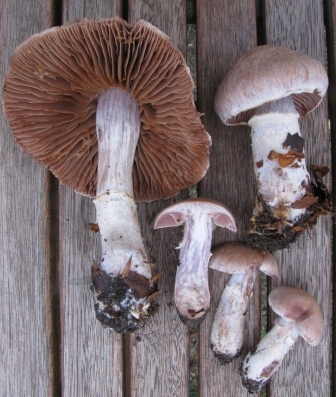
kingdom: Fungi
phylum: Basidiomycota
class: Agaricomycetes
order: Agaricales
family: Cortinariaceae
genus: Cortinarius
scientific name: Cortinarius torvus
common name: champignonagtig slørhat
